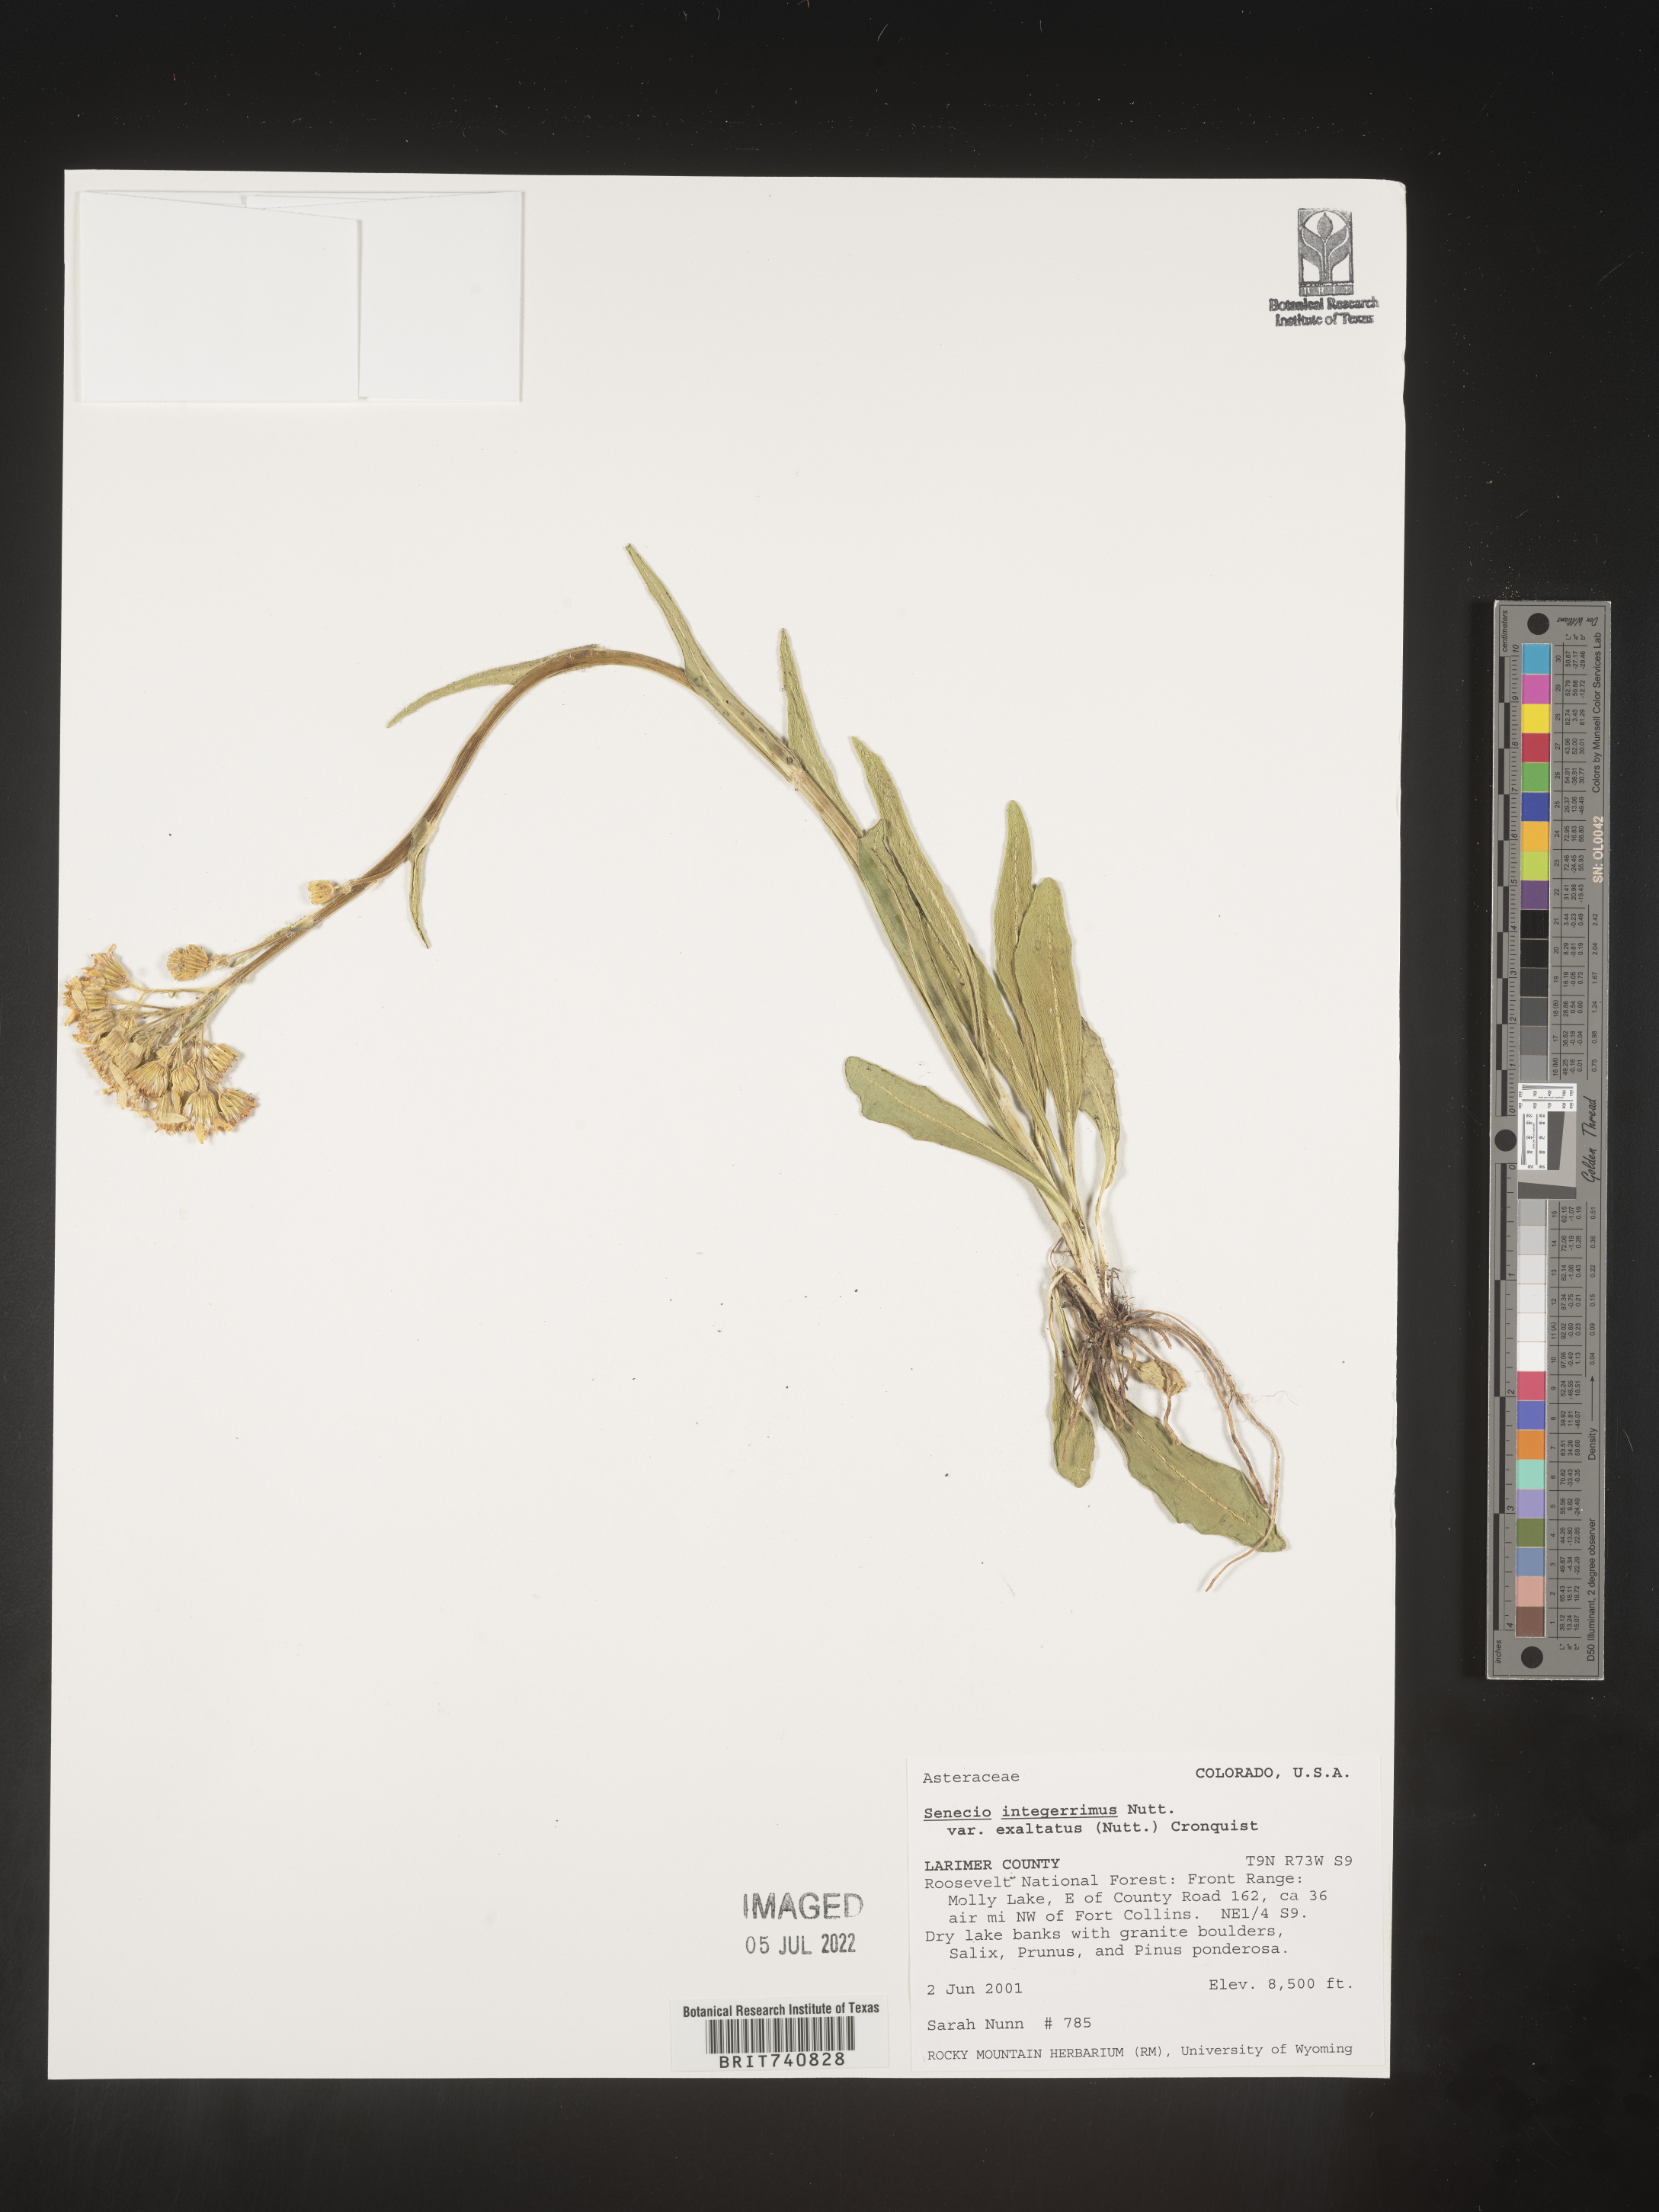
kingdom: Plantae
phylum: Tracheophyta
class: Magnoliopsida
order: Asterales
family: Asteraceae
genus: Senecio
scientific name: Senecio integerrimus
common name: Gaugeplant
